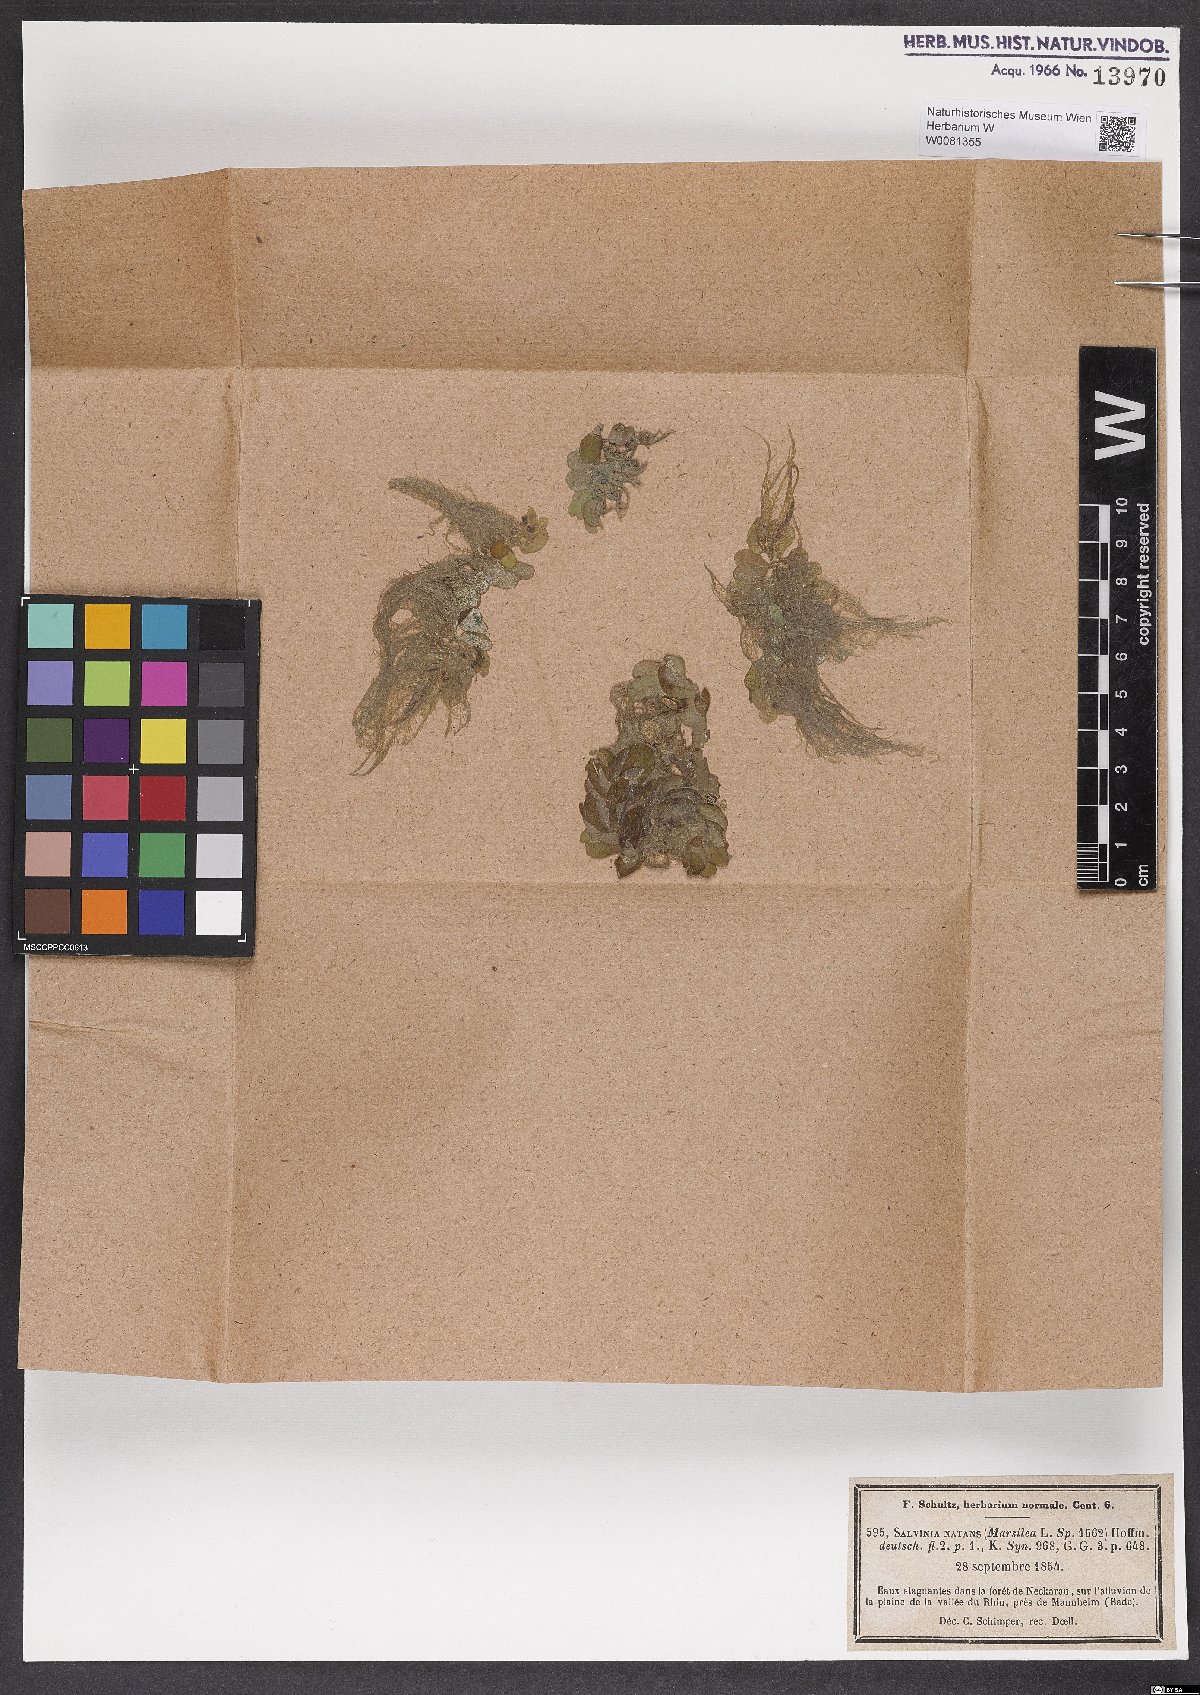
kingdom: Plantae
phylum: Tracheophyta
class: Polypodiopsida
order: Salviniales
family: Salviniaceae
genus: Salvinia
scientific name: Salvinia natans
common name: Floating fern
